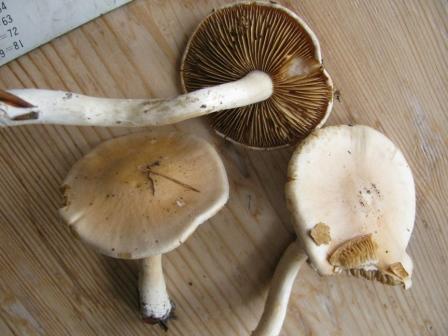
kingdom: Fungi
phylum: Basidiomycota
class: Agaricomycetes
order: Agaricales
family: Cortinariaceae
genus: Thaxterogaster
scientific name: Thaxterogaster leucoluteolus
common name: isabella slørhat
